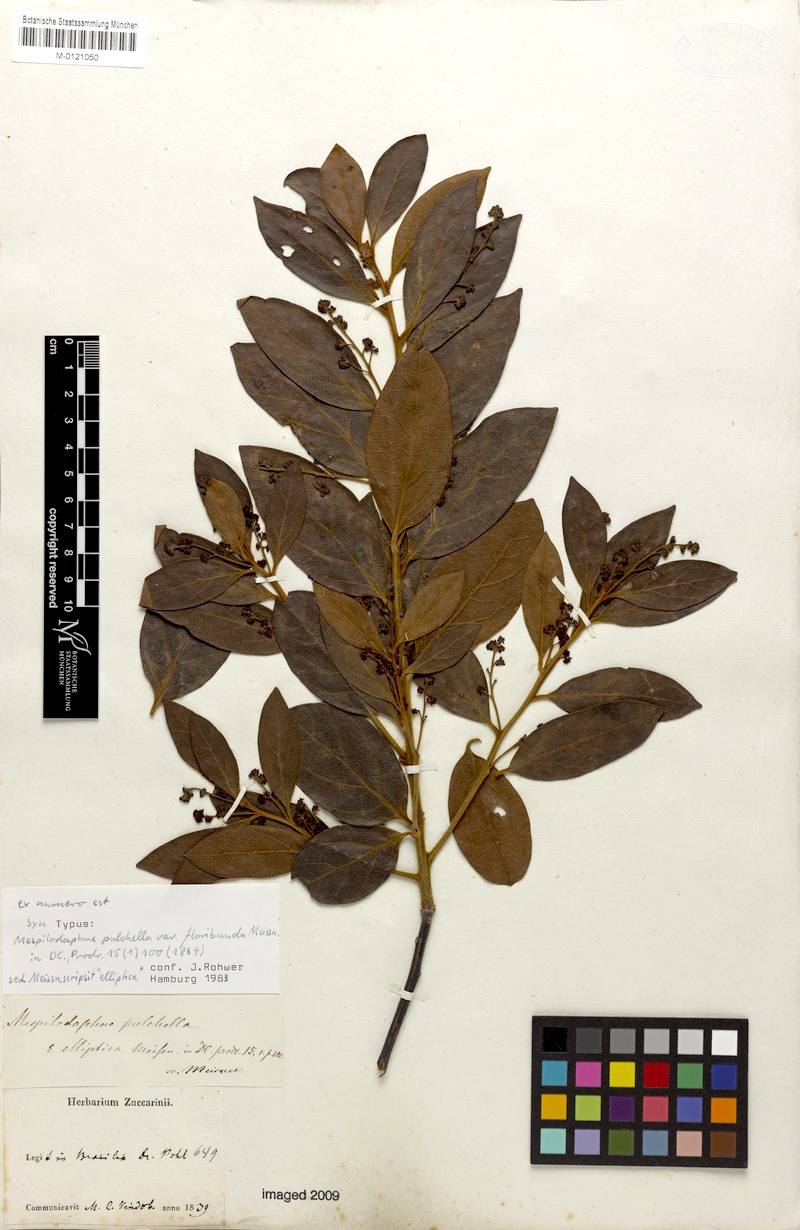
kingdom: Plantae
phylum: Tracheophyta
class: Magnoliopsida
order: Laurales
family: Lauraceae
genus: Mespilodaphne
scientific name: Mespilodaphne pulchella
